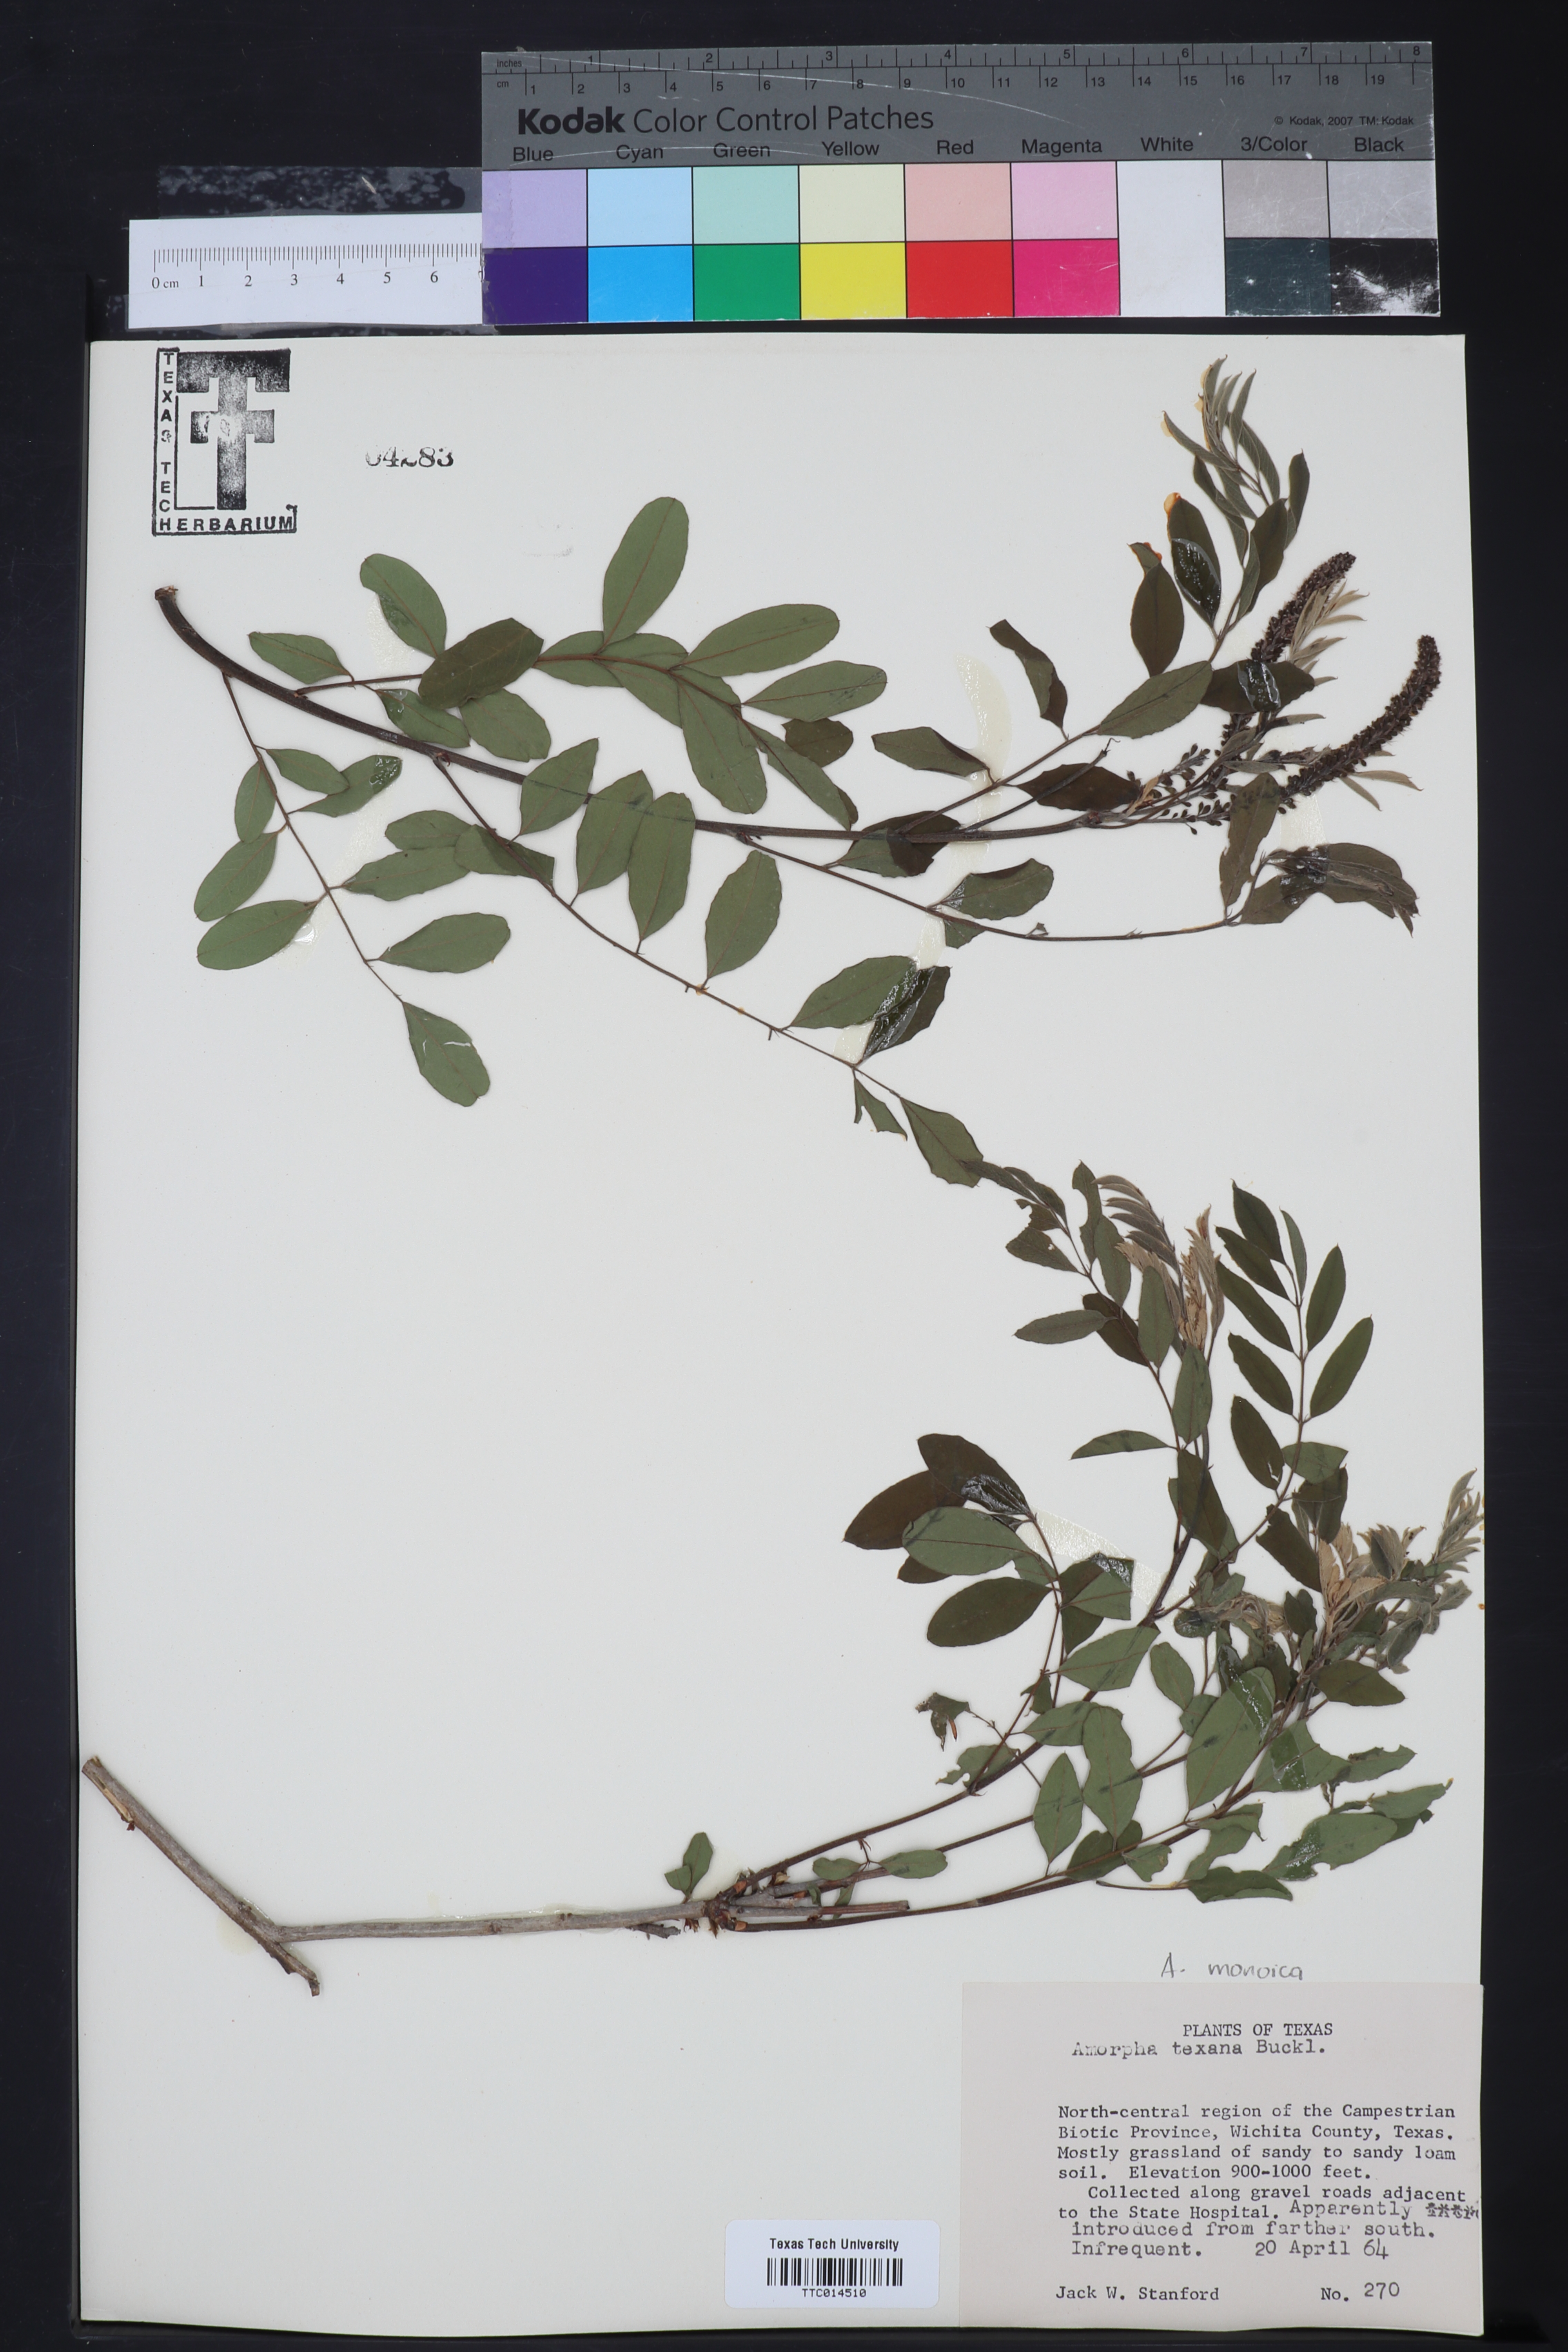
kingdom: Plantae
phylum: Tracheophyta
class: Magnoliopsida
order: Fabales
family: Fabaceae
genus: Amorpha
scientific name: Amorpha roemeriana
